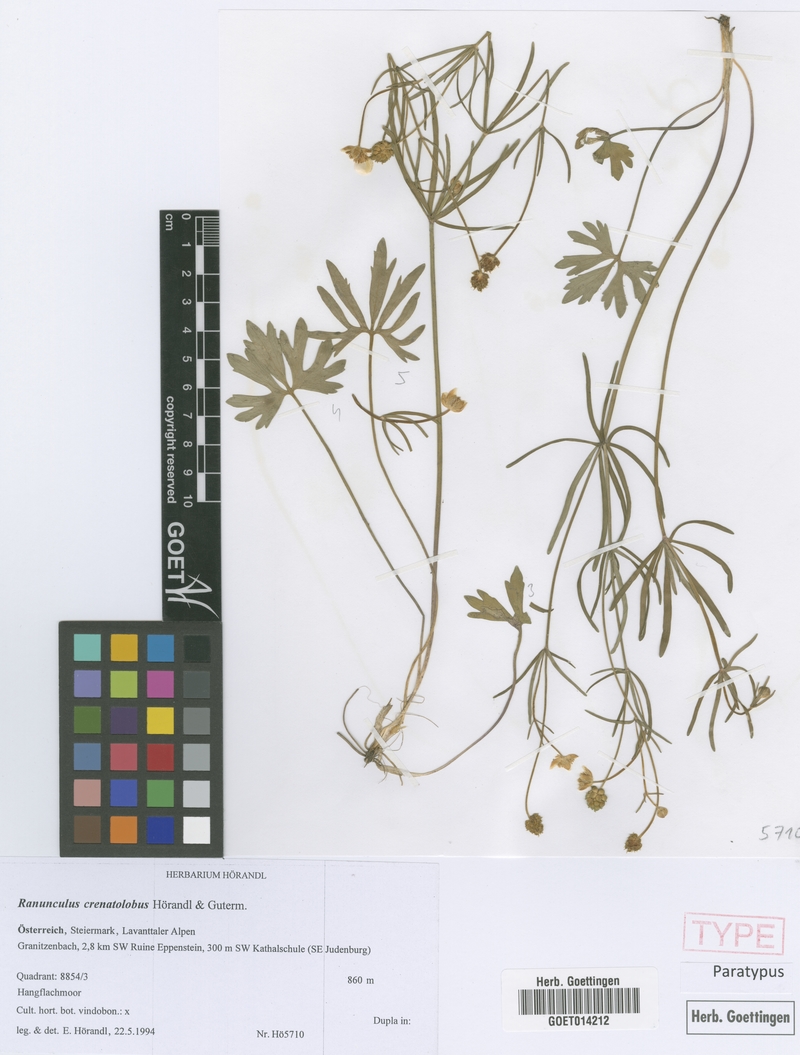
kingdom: Plantae
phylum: Tracheophyta
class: Magnoliopsida
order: Ranunculales
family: Ranunculaceae
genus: Ranunculus
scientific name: Ranunculus crenatolobus
